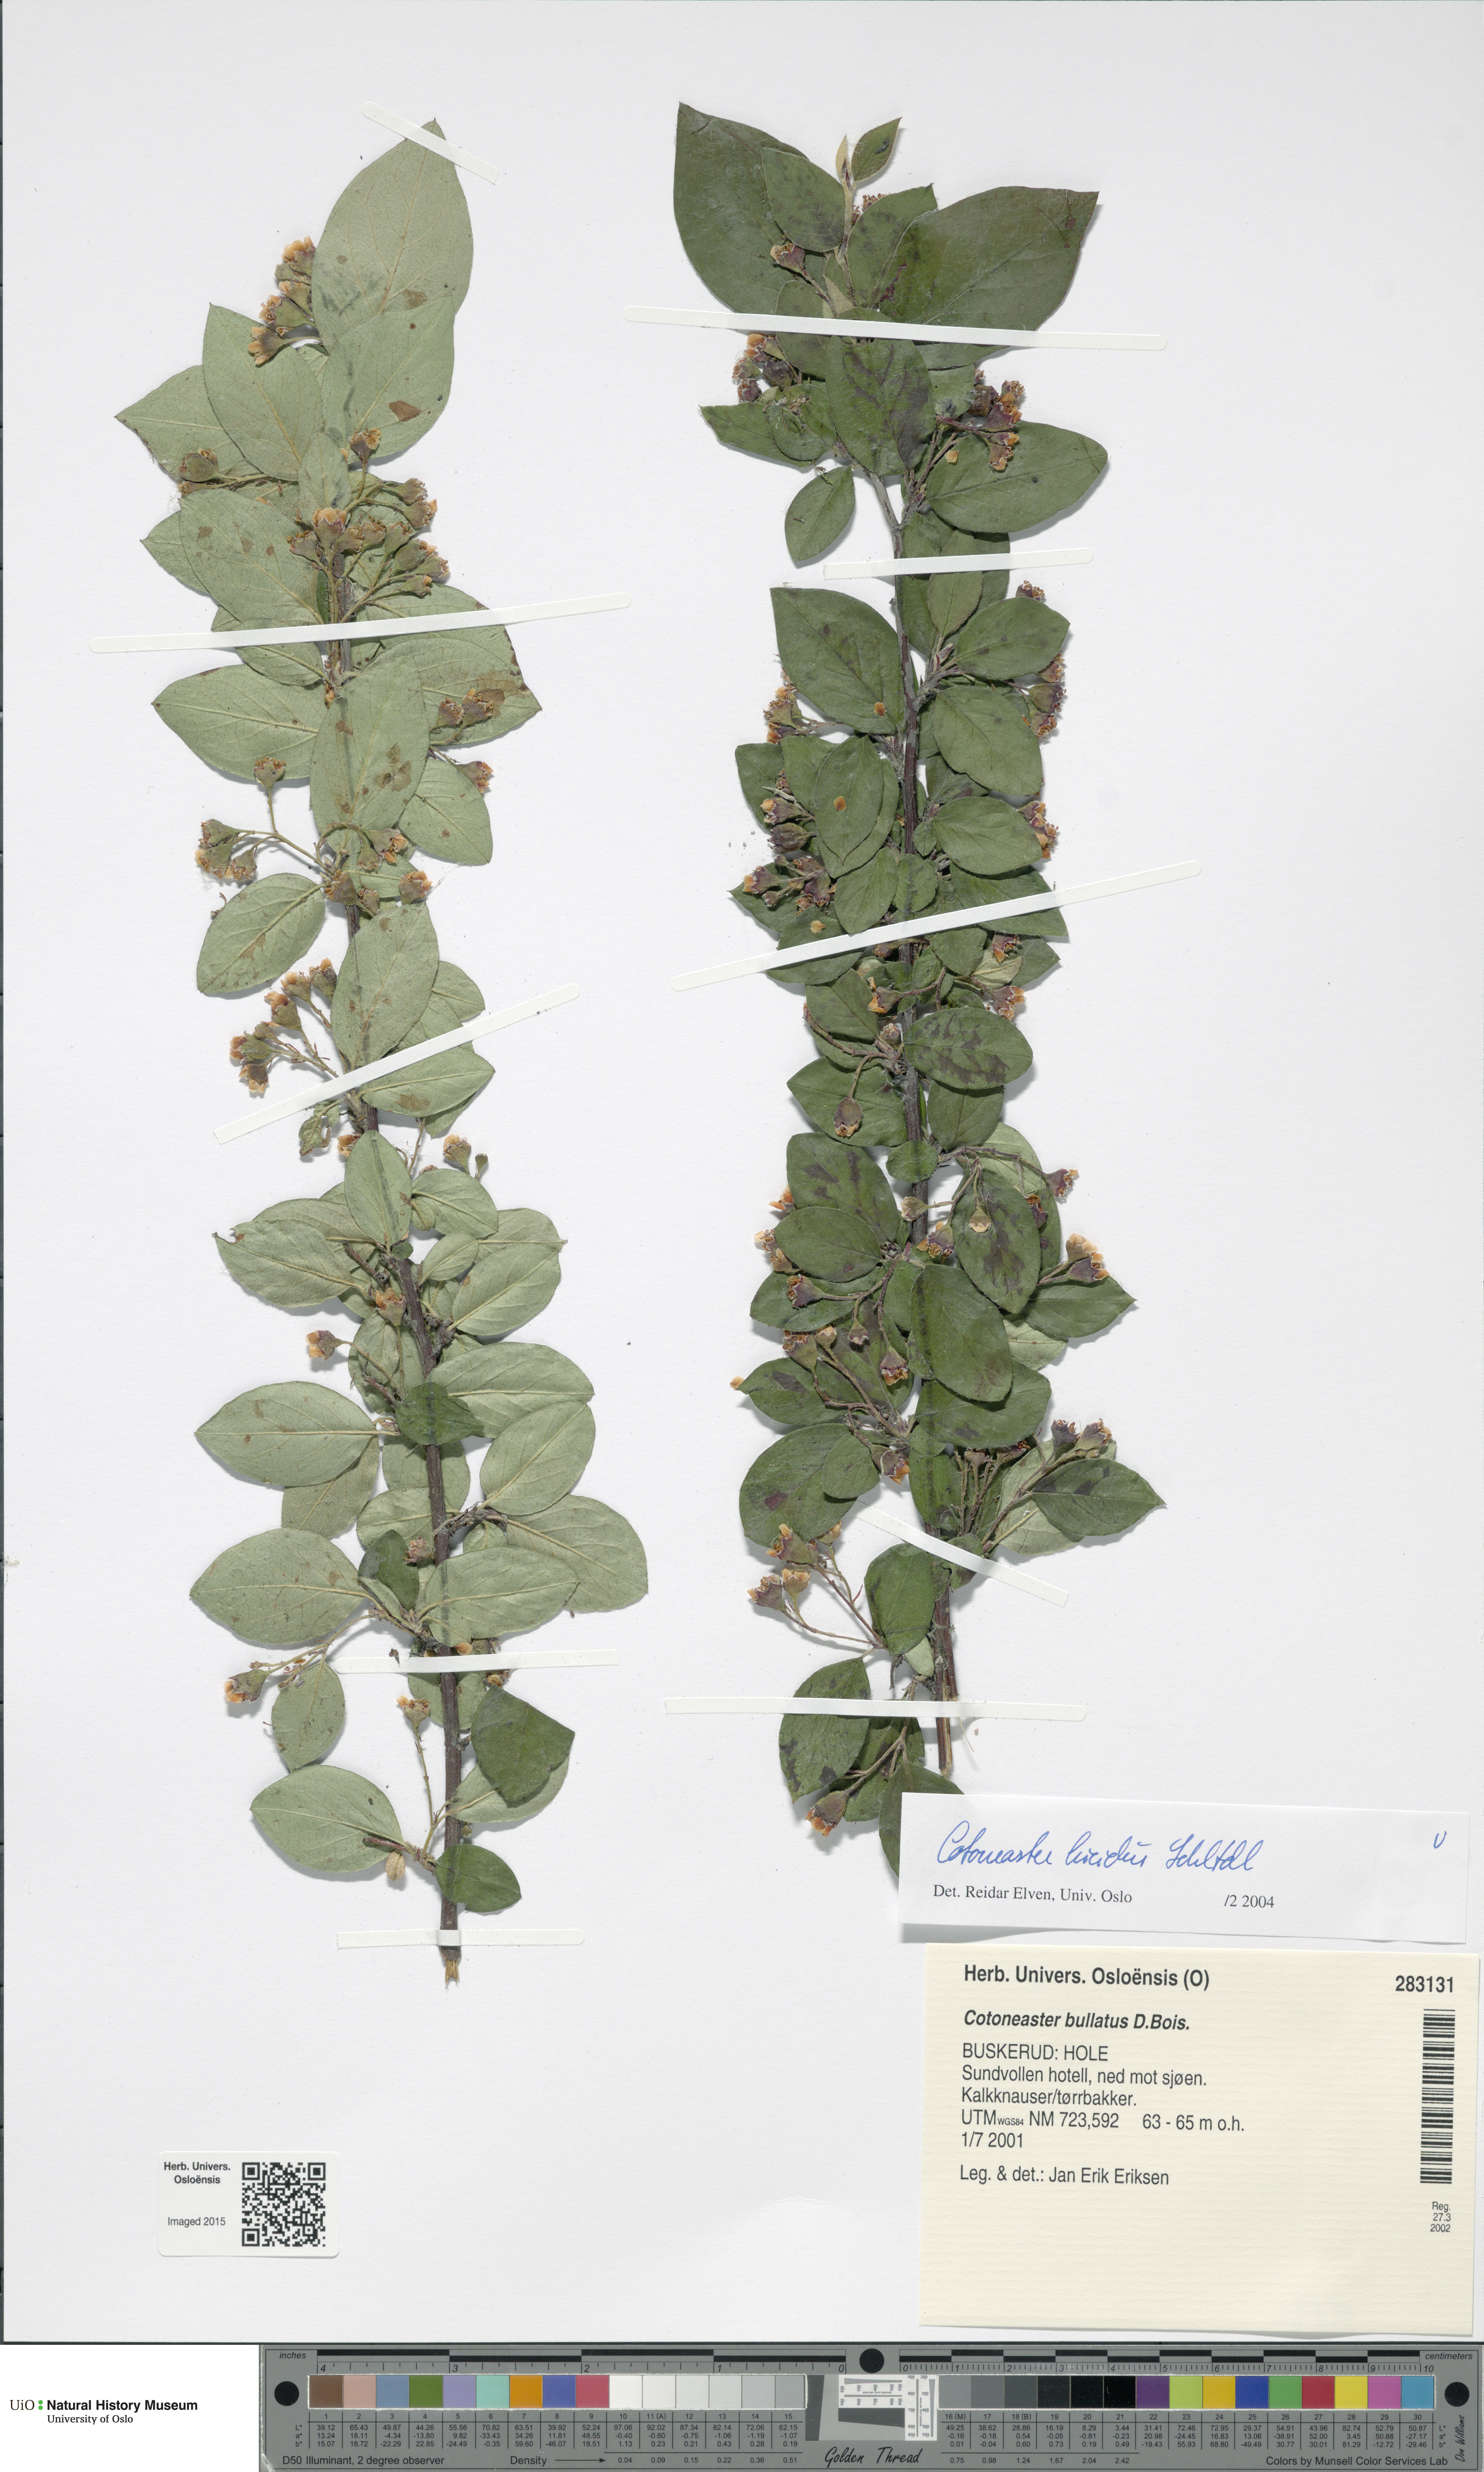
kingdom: Plantae
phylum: Tracheophyta
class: Magnoliopsida
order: Rosales
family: Rosaceae
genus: Cotoneaster
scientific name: Cotoneaster acutifolius
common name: Peking cotoneaster
